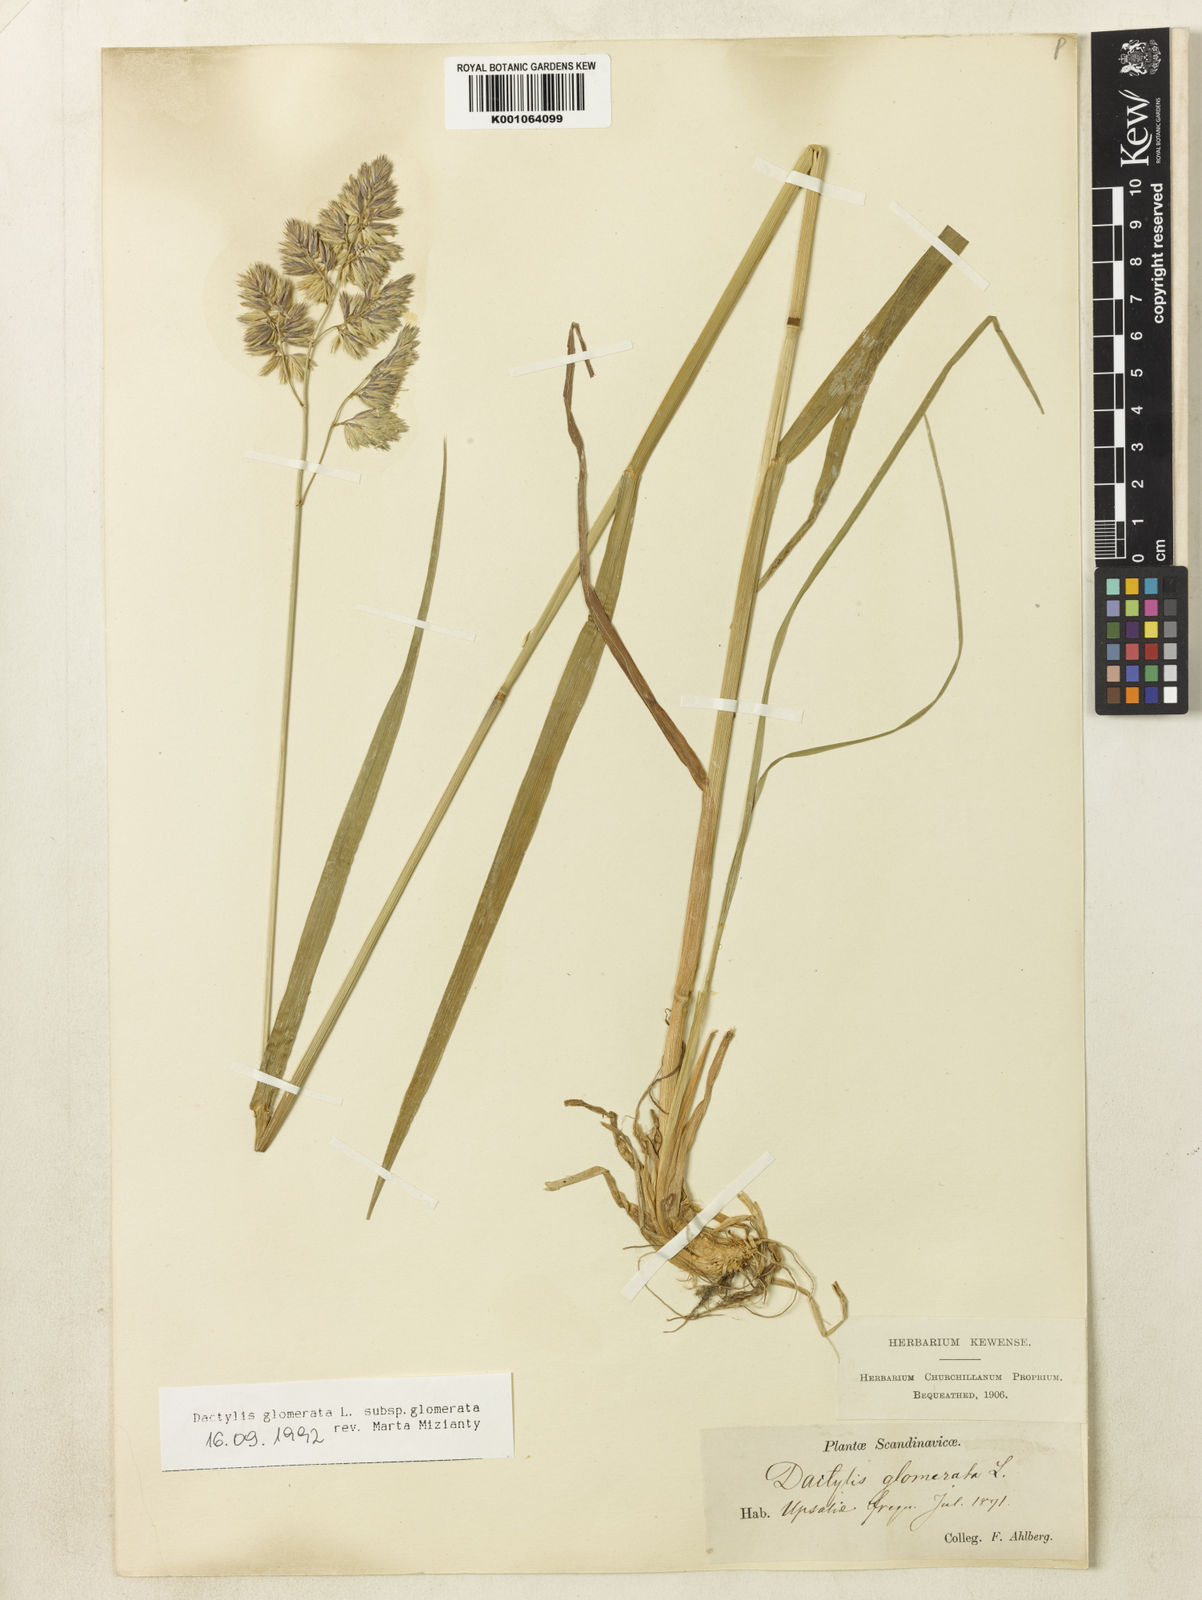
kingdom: Plantae
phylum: Tracheophyta
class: Liliopsida
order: Poales
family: Poaceae
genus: Dactylis
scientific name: Dactylis glomerata
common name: Orchardgrass
